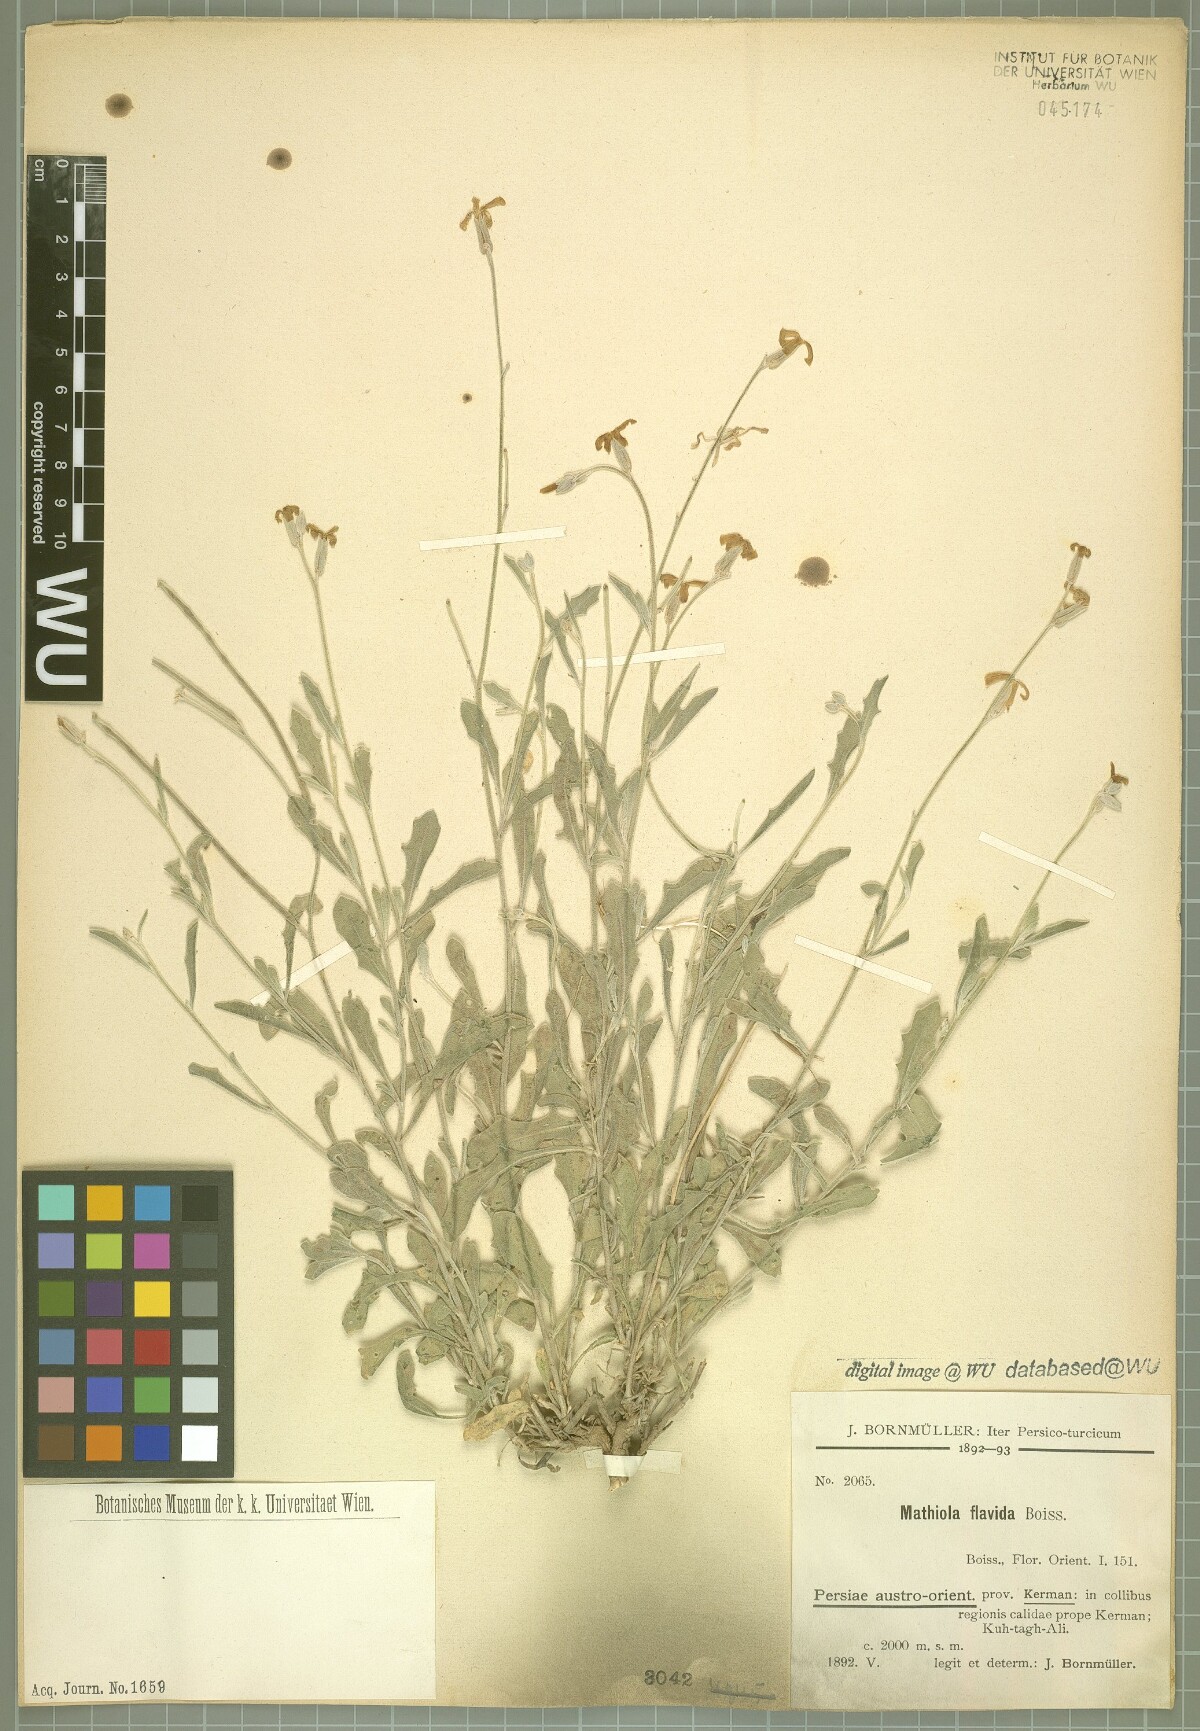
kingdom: Plantae
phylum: Tracheophyta
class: Magnoliopsida
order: Brassicales
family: Brassicaceae
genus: Matthiola
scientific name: Matthiola flavida
